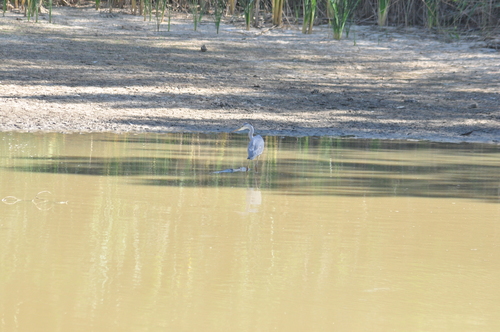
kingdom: Animalia
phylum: Chordata
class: Aves
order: Pelecaniformes
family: Ardeidae
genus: Ardea
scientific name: Ardea cinerea
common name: Grey heron
